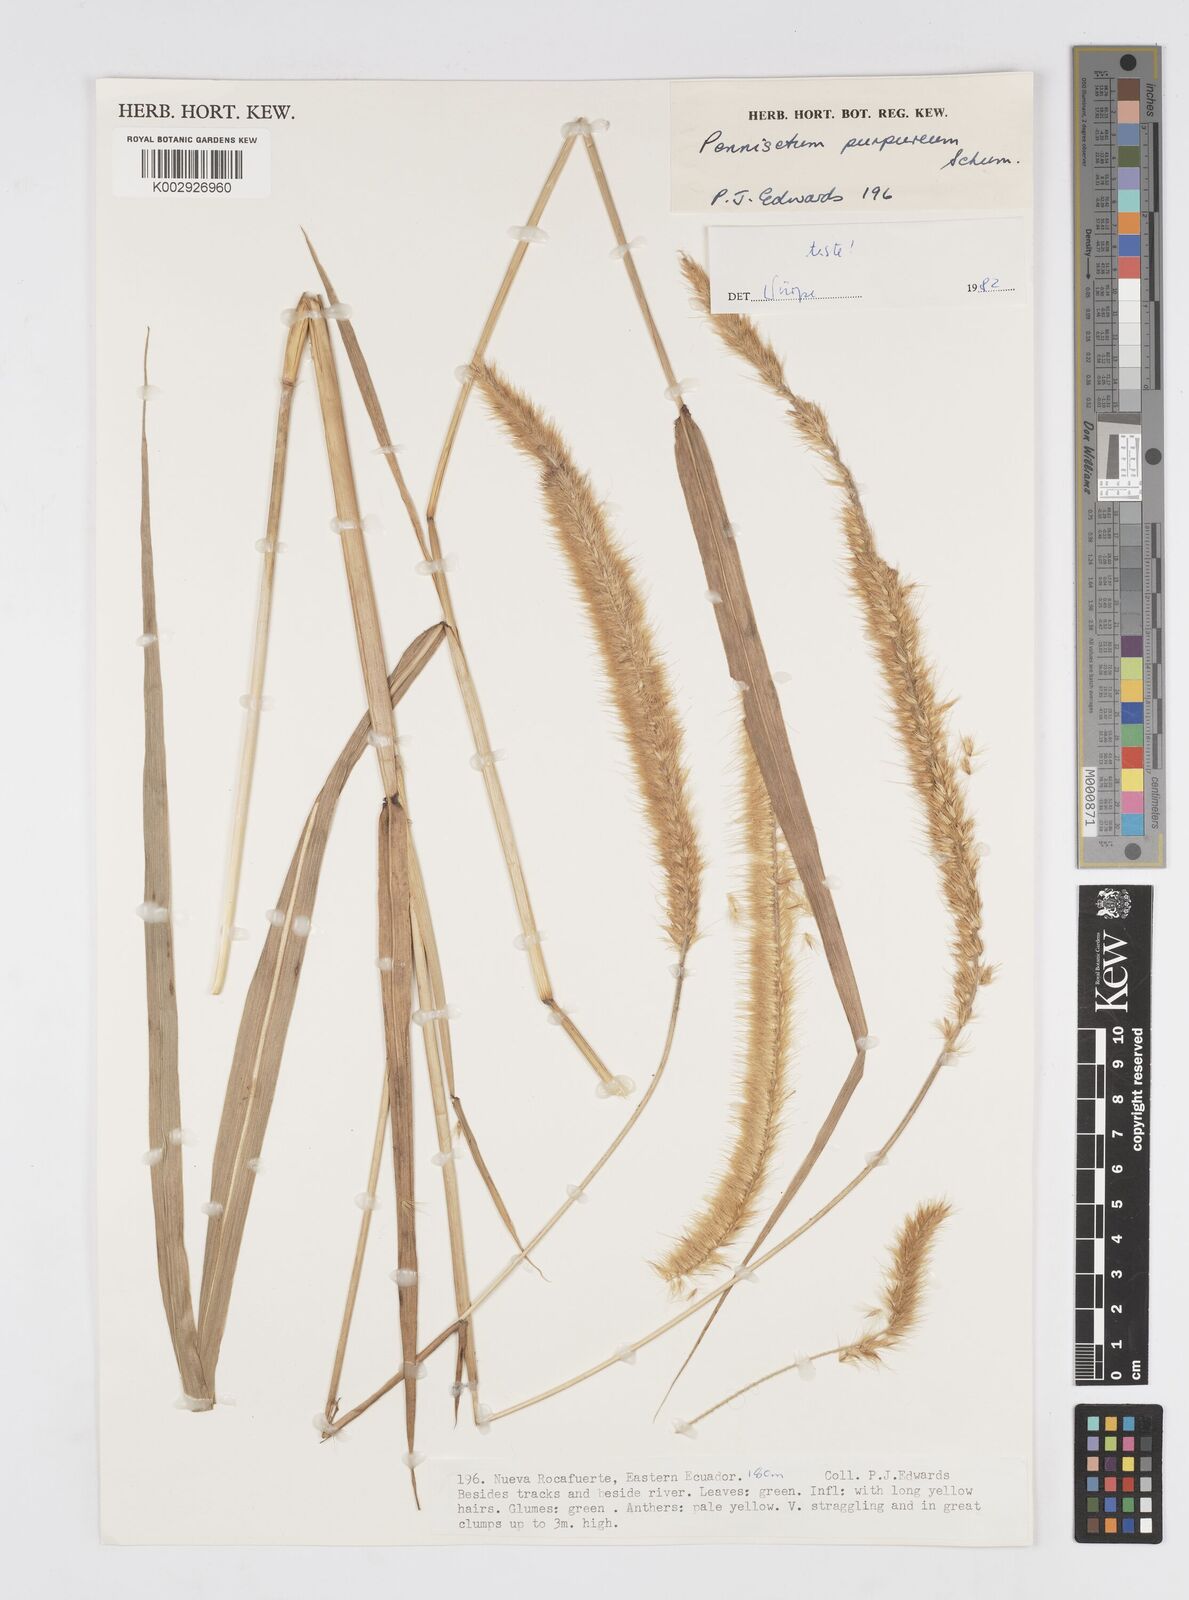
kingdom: Plantae
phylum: Tracheophyta
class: Liliopsida
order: Poales
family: Poaceae
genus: Cenchrus
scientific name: Cenchrus purpureus
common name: Elephant grass
